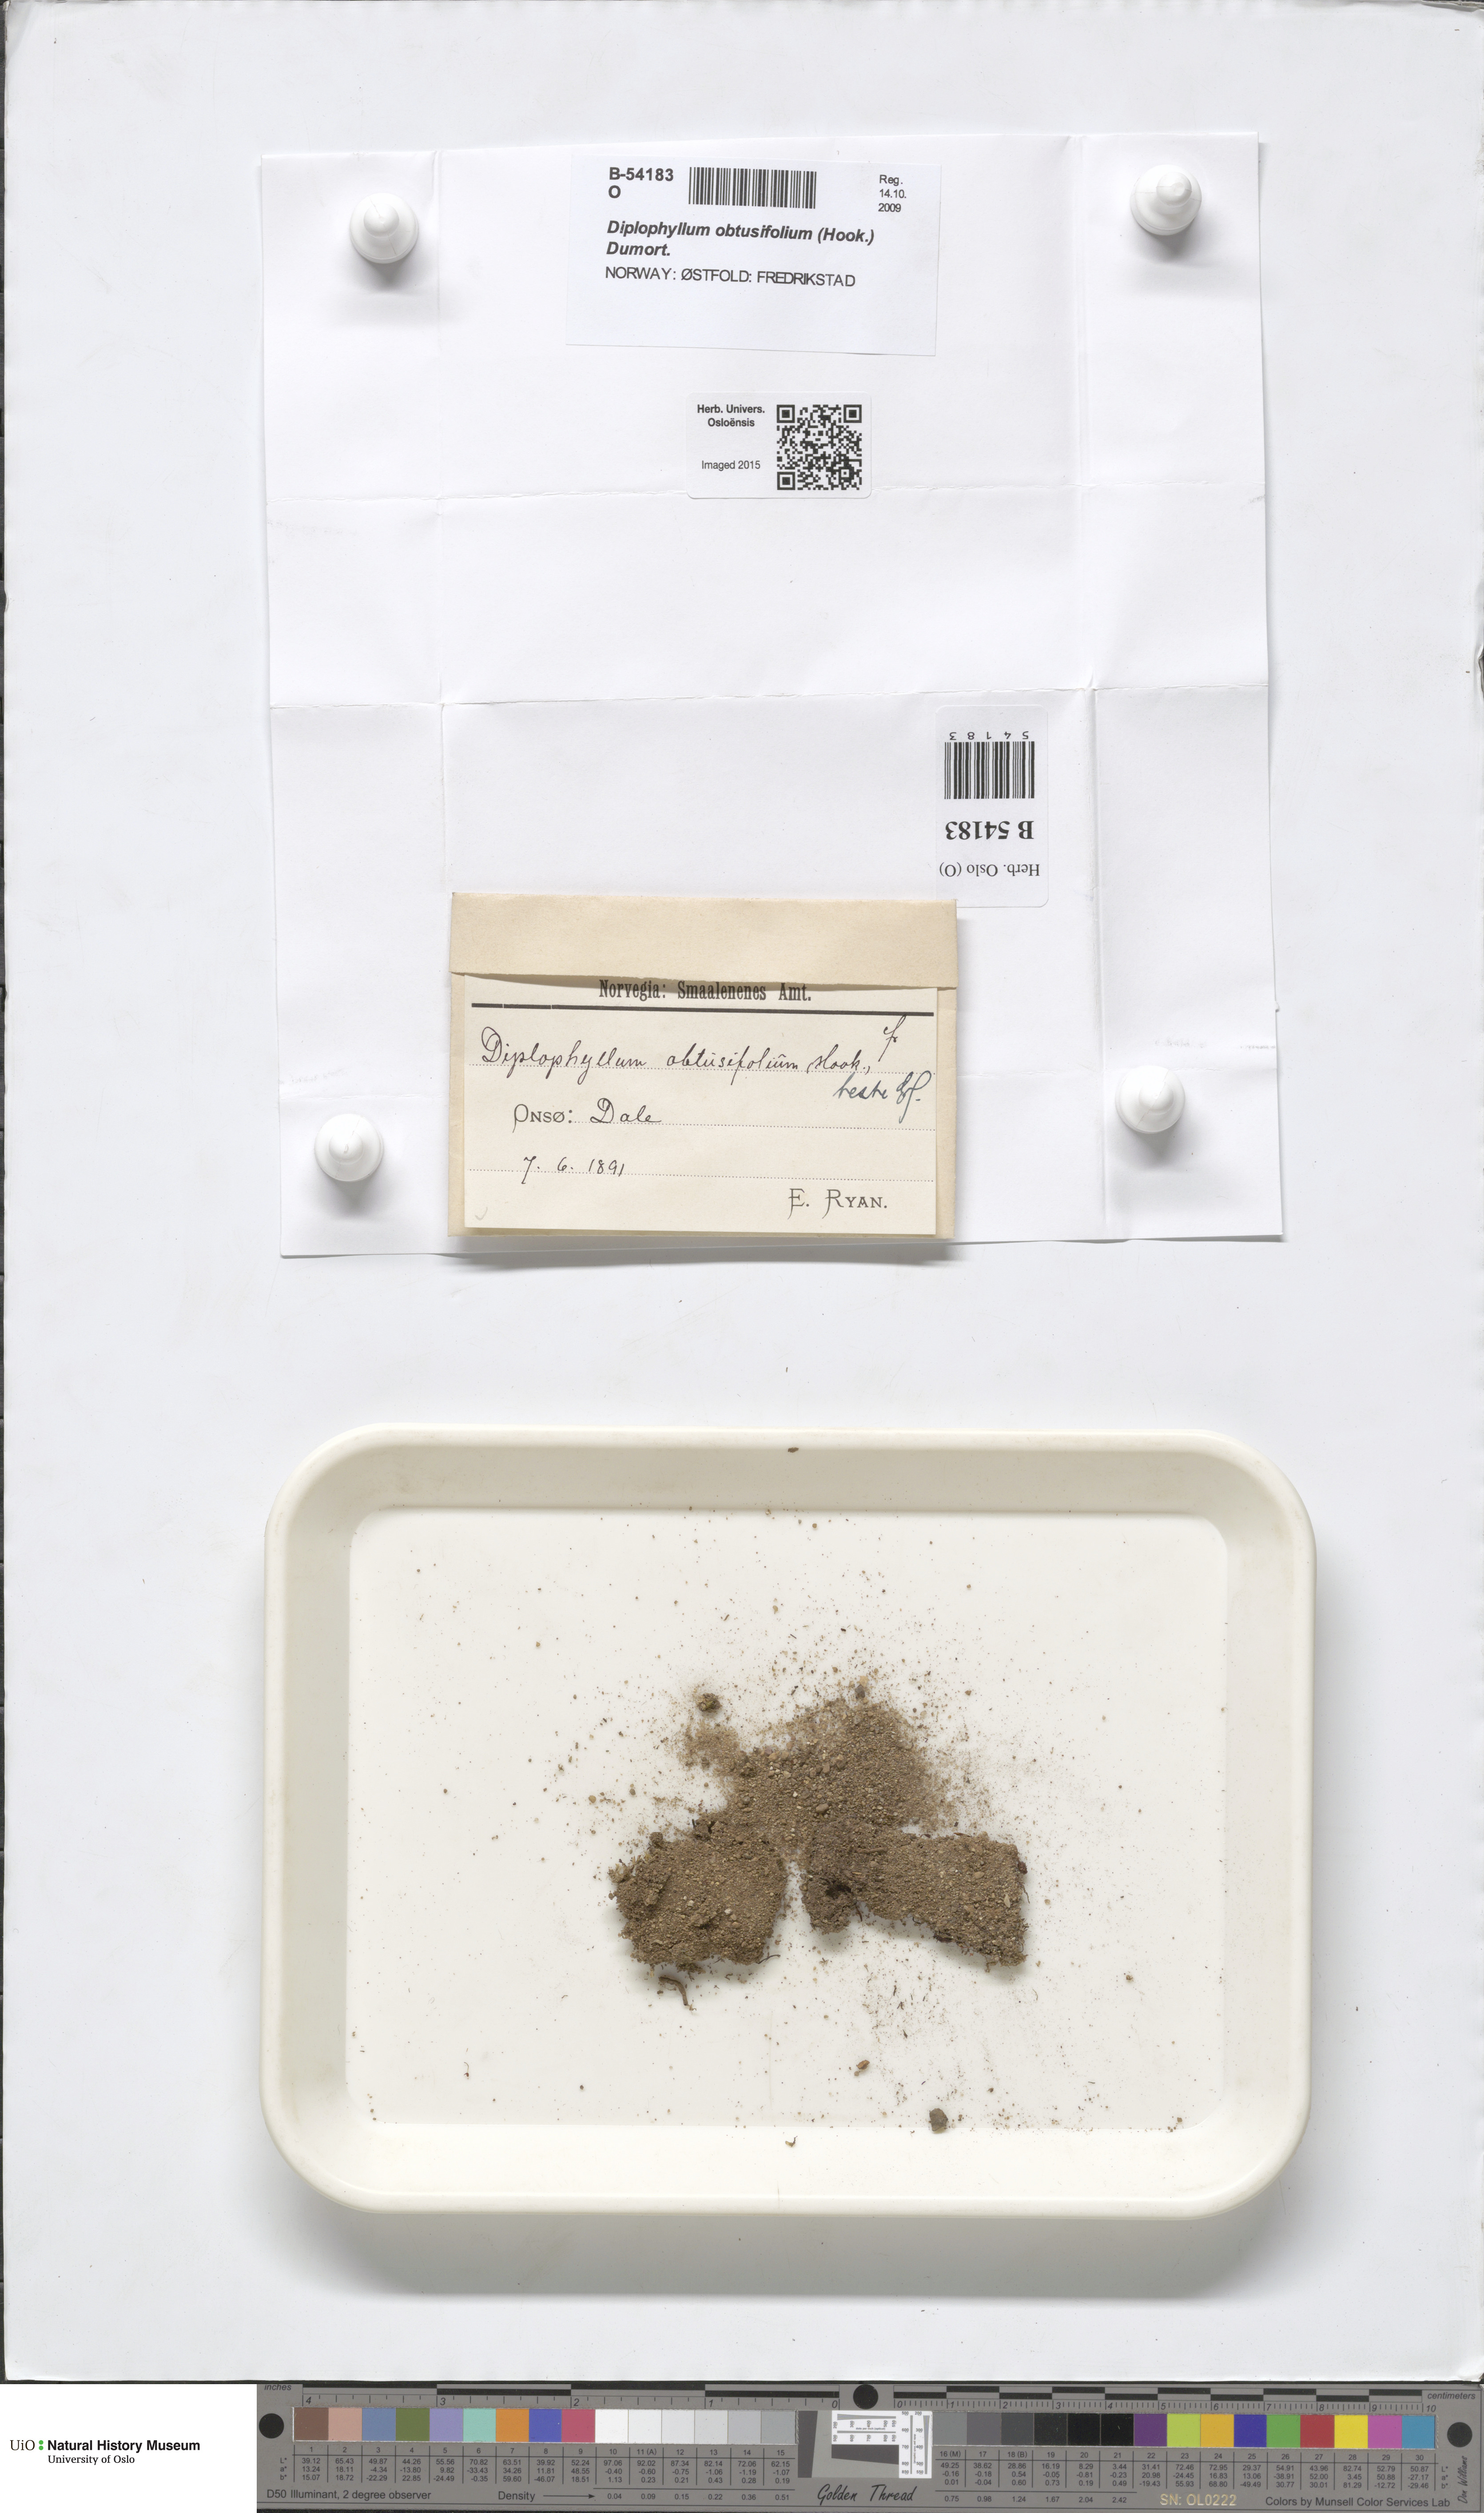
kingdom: Plantae
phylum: Marchantiophyta
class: Jungermanniopsida
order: Jungermanniales
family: Scapaniaceae
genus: Diplophyllum
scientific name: Diplophyllum obtusifolium
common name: Blunt-leaved earwort
